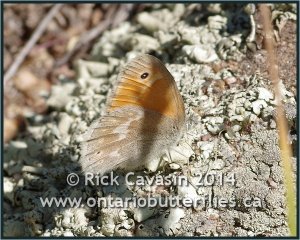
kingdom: Animalia
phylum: Arthropoda
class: Insecta
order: Lepidoptera
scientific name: Lepidoptera
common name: Butterflies
